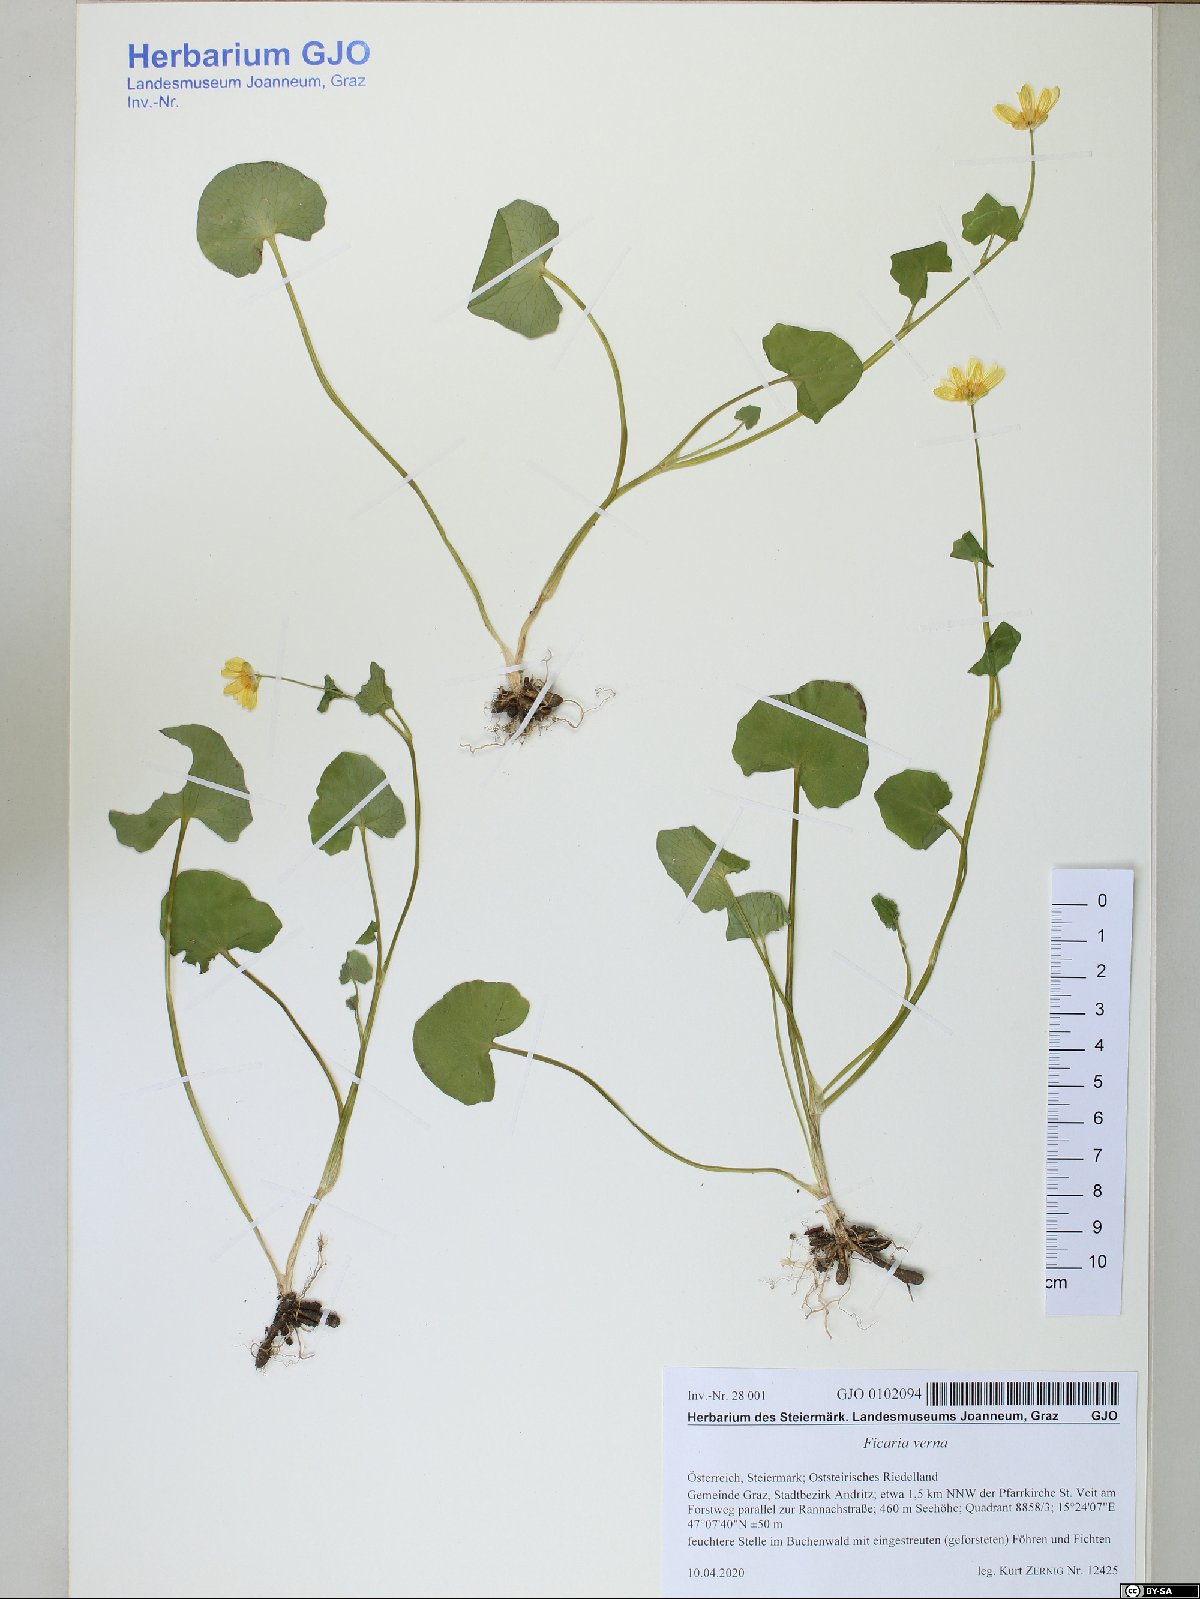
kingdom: Plantae
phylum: Tracheophyta
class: Magnoliopsida
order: Ranunculales
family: Ranunculaceae
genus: Ficaria
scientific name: Ficaria verna
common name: Lesser celandine
